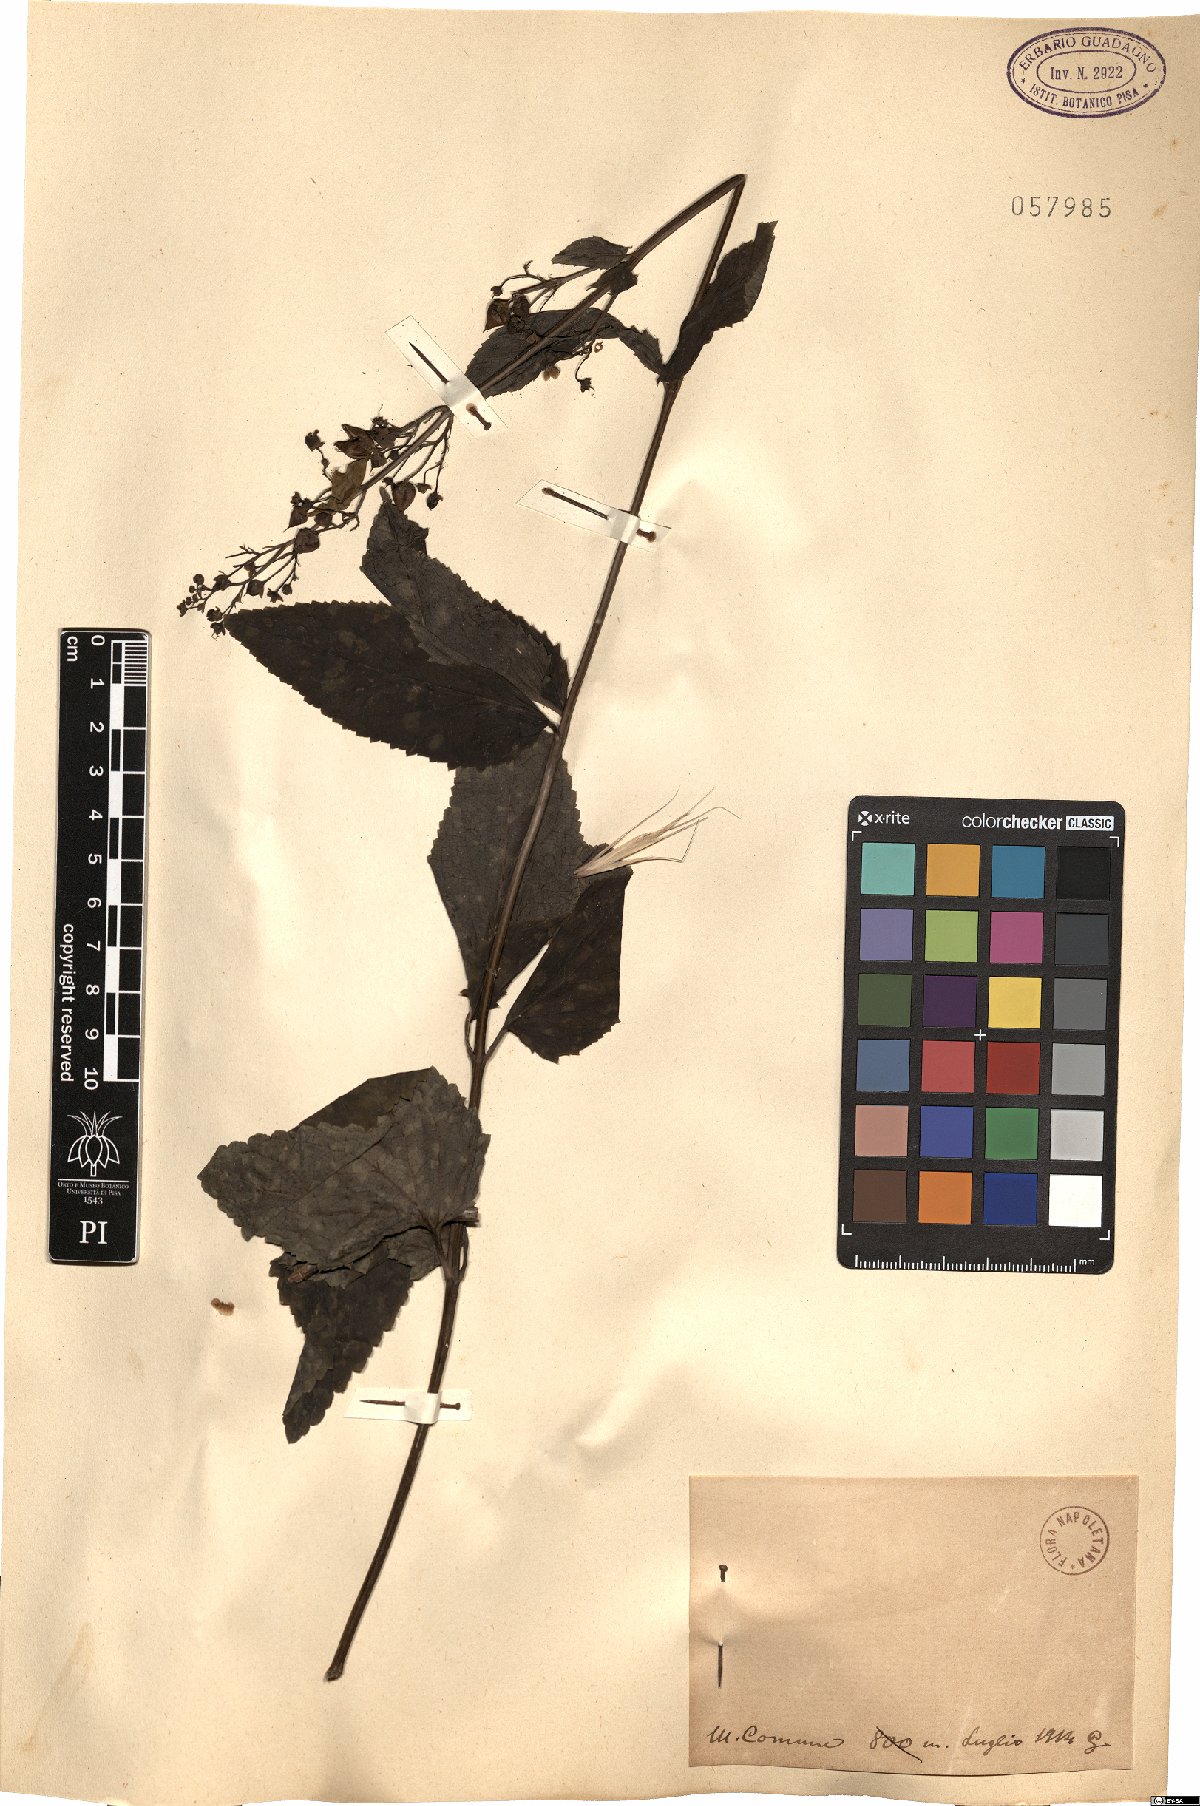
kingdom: Plantae
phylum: Tracheophyta
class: Magnoliopsida
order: Lamiales
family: Scrophulariaceae
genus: Scrophularia
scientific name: Scrophularia
